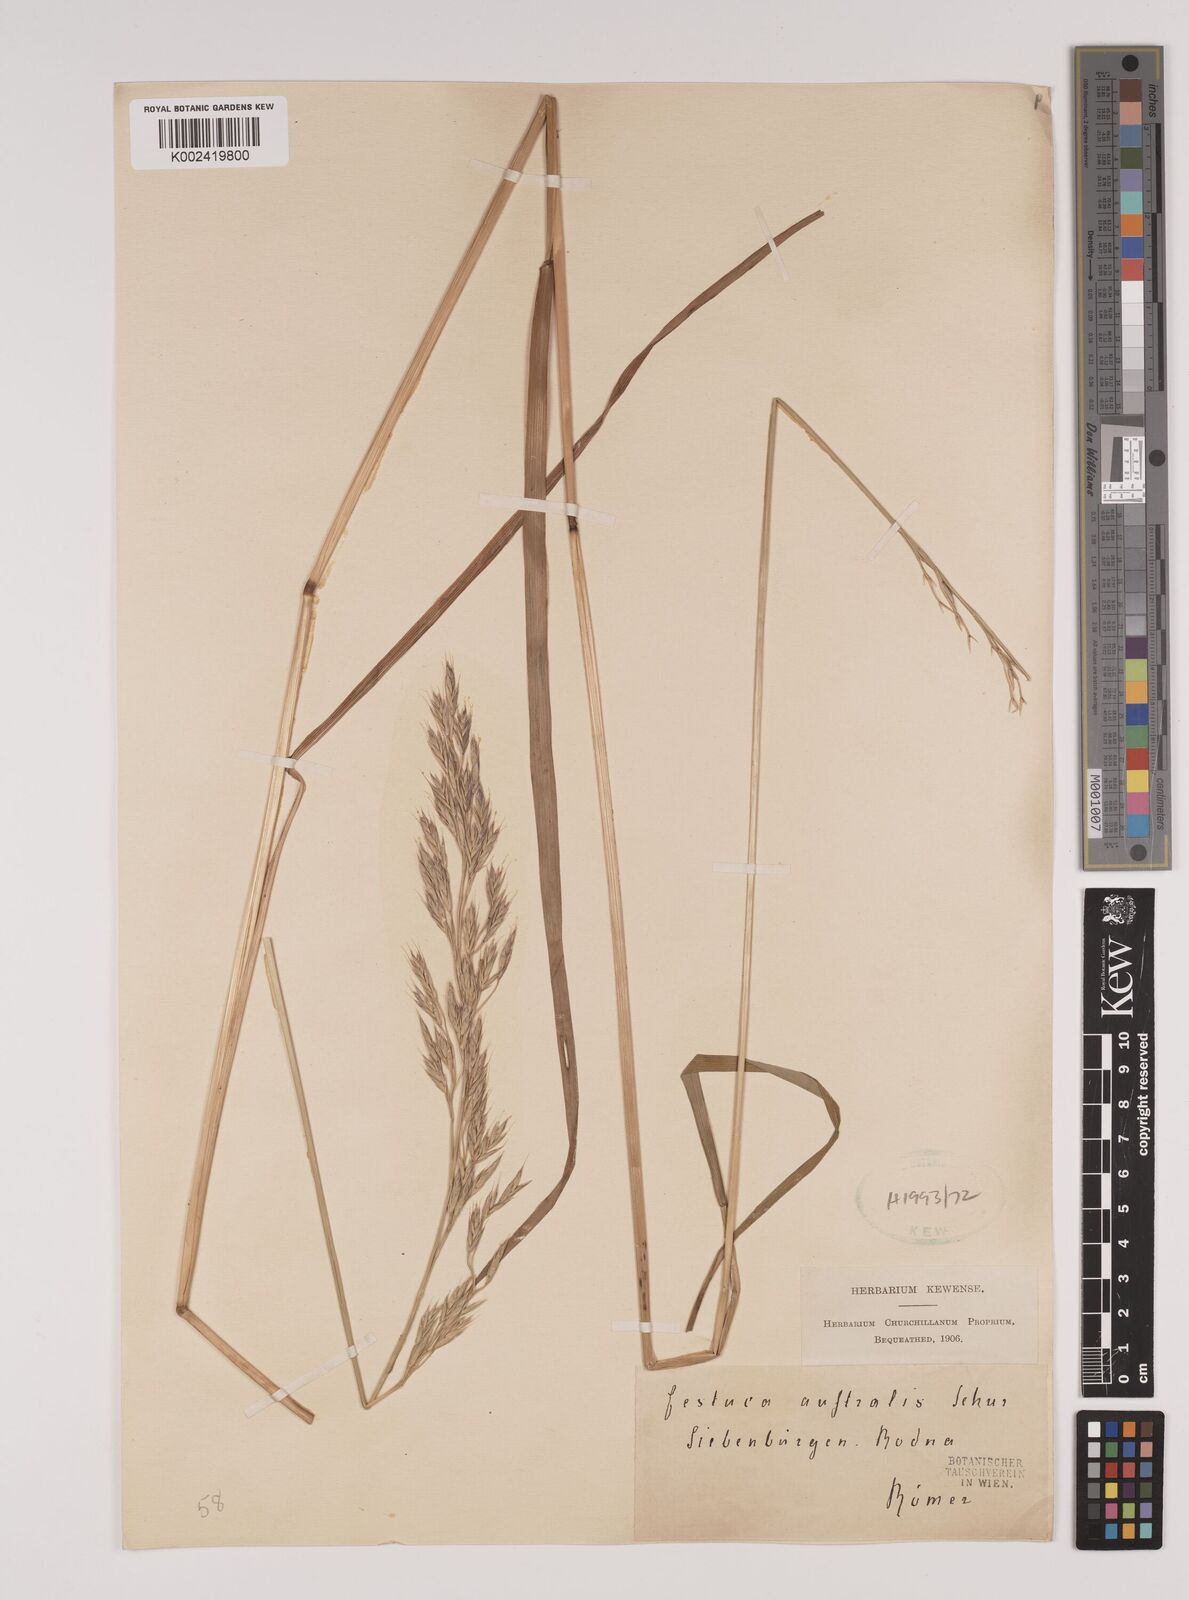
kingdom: Plantae
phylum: Tracheophyta
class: Liliopsida
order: Poales
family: Poaceae
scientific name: Poaceae
